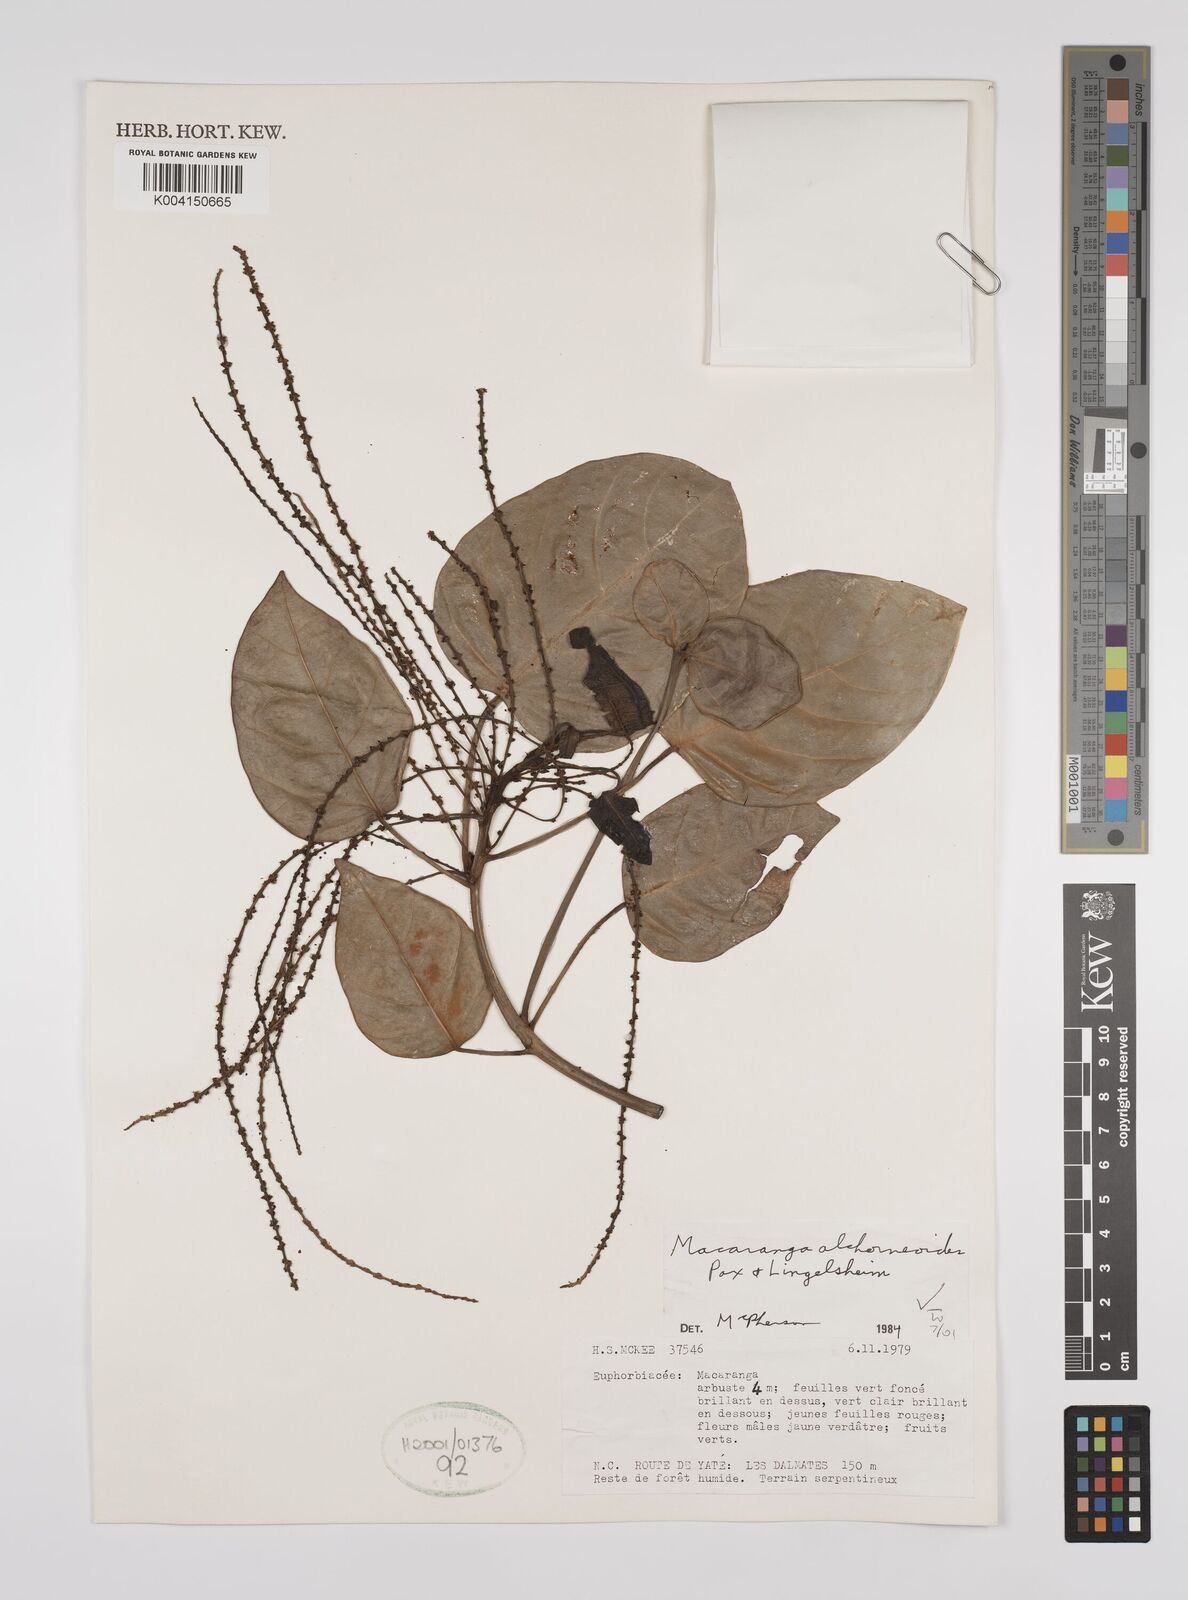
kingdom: Plantae
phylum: Tracheophyta
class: Magnoliopsida
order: Malpighiales
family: Euphorbiaceae
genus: Macaranga
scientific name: Macaranga alchorneoides
